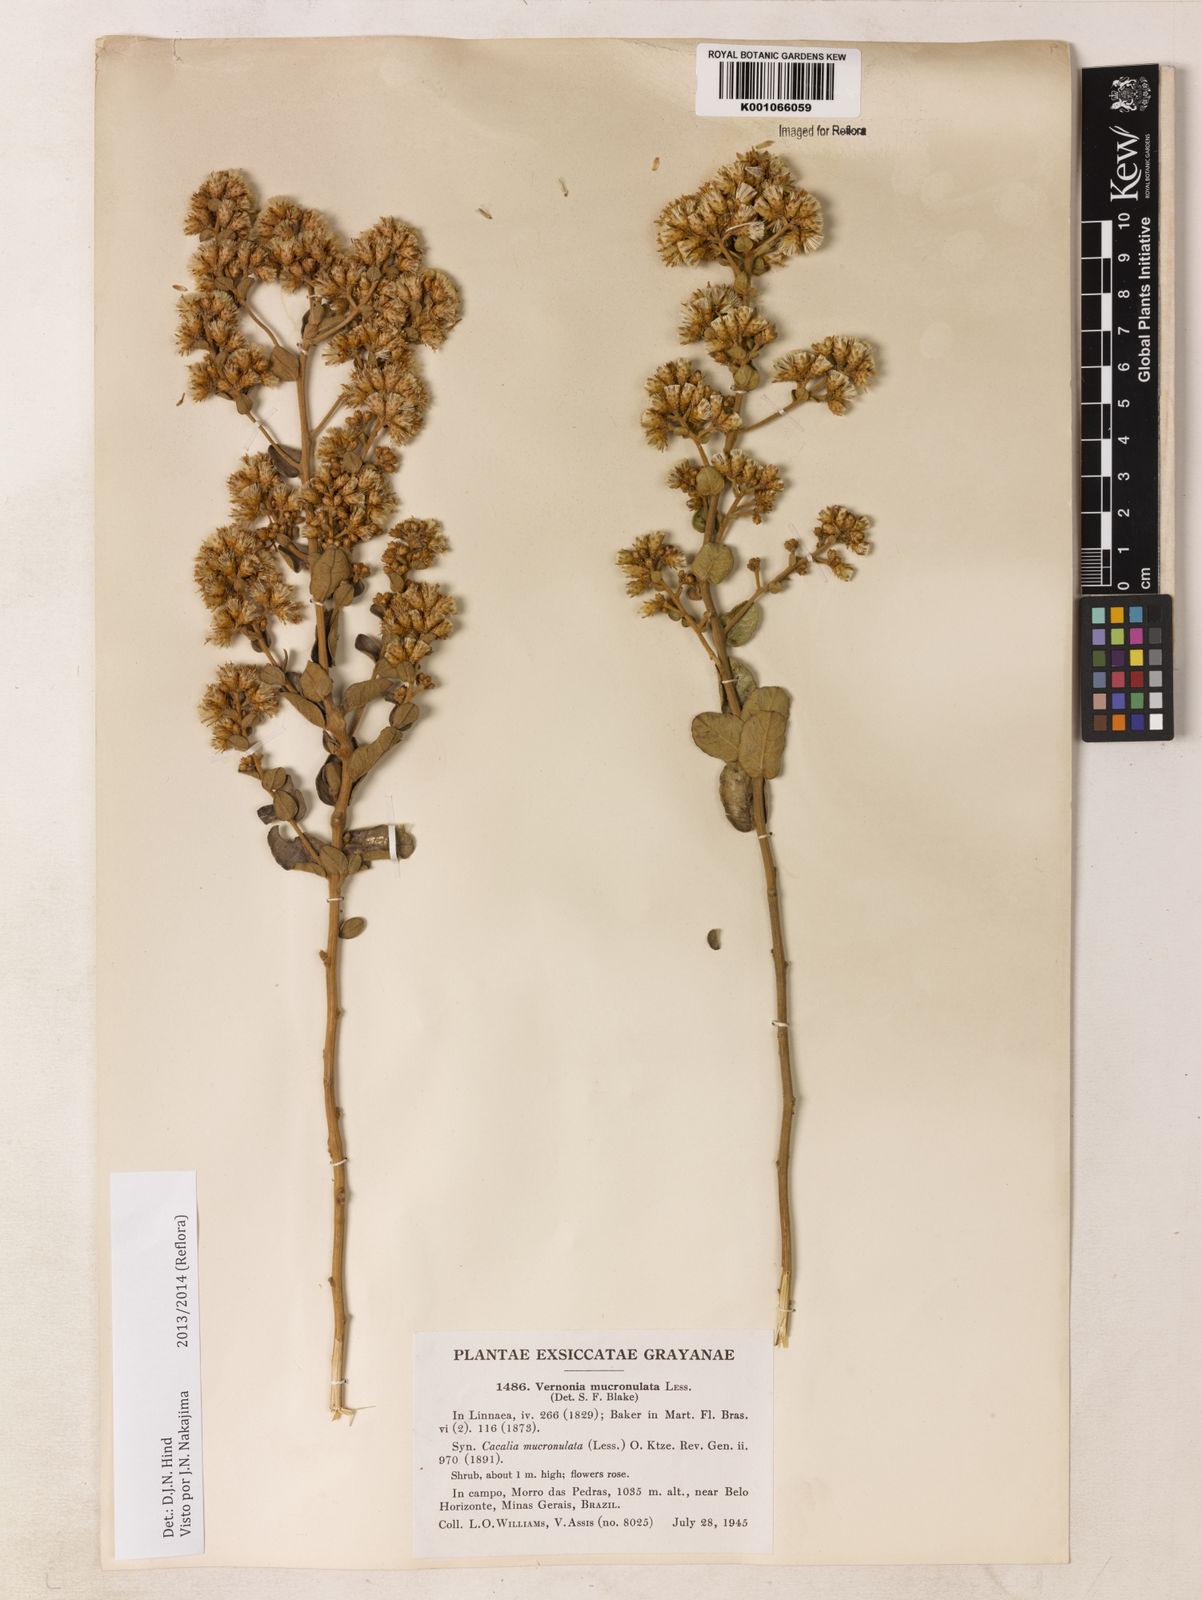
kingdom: Plantae
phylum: Tracheophyta
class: Magnoliopsida
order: Asterales
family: Asteraceae
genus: Vernonanthura
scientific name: Vernonanthura mucronulata
